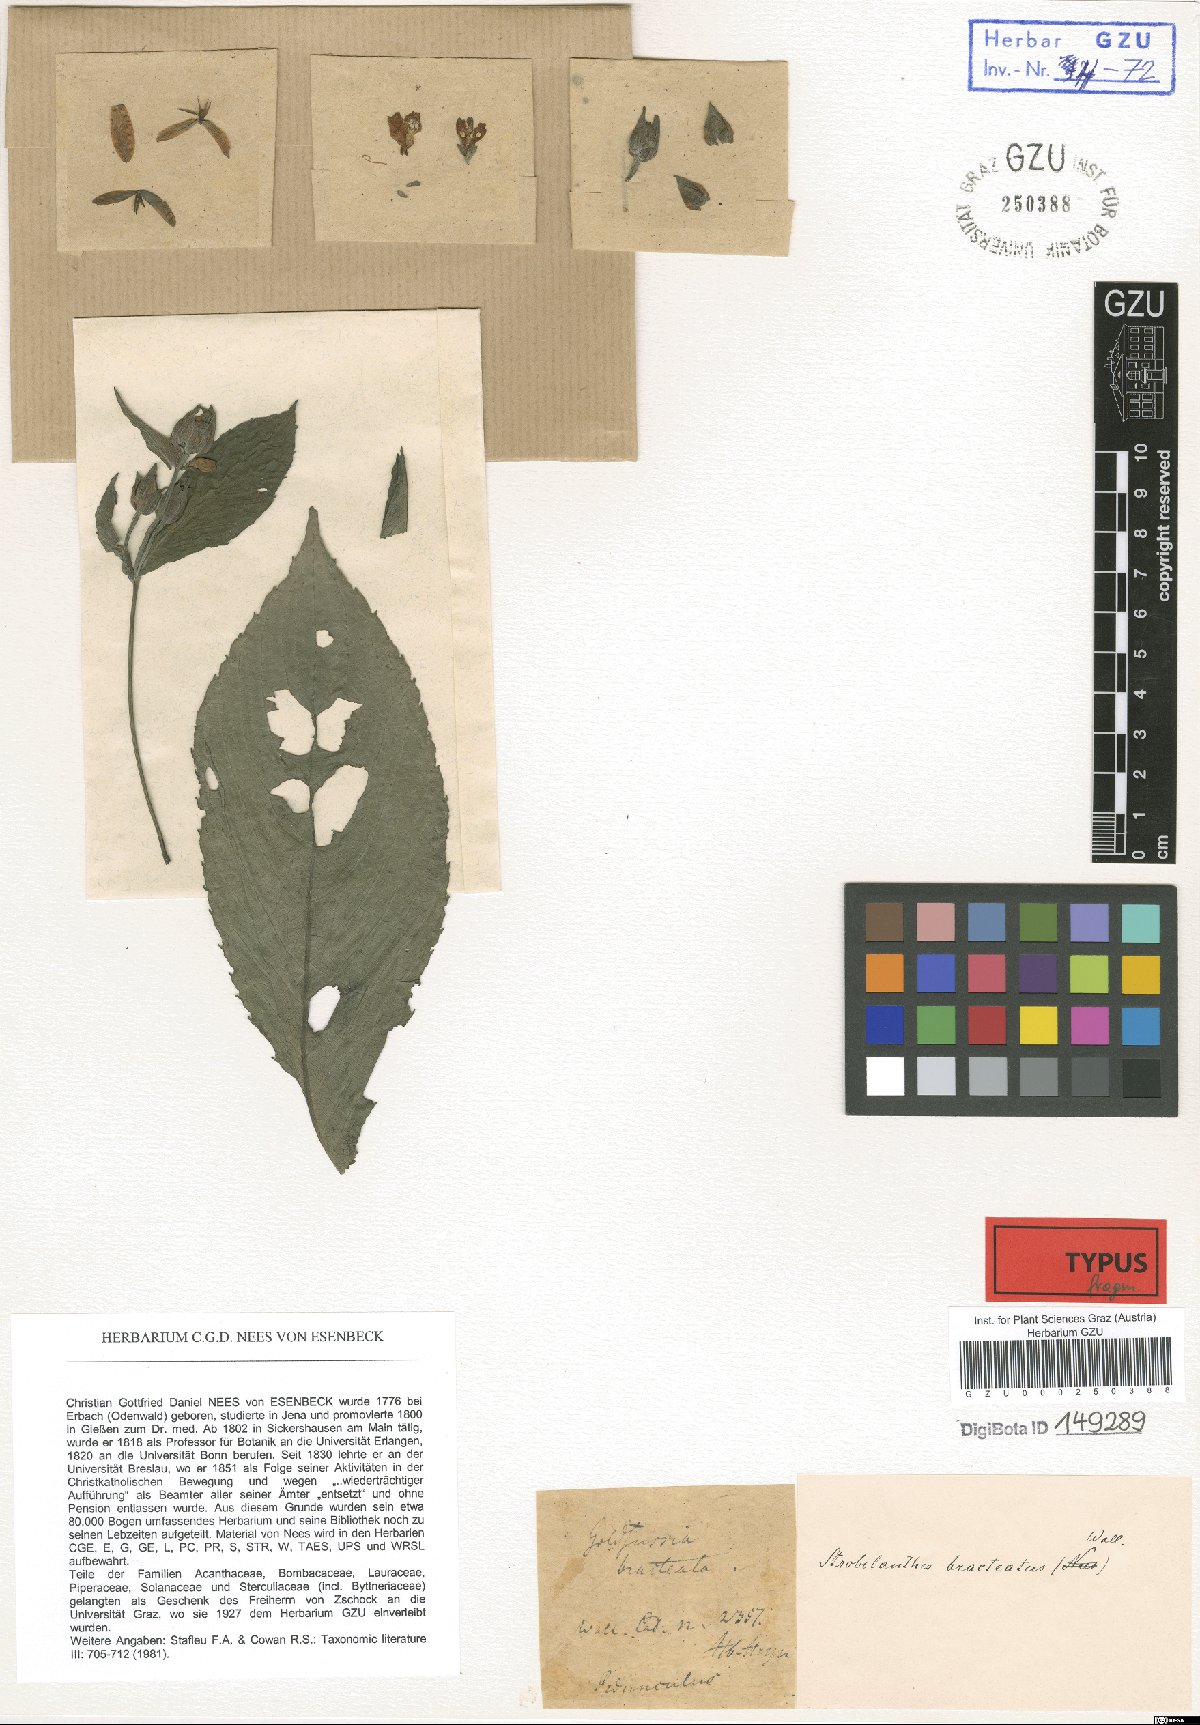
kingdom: Plantae
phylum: Tracheophyta
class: Magnoliopsida
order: Lamiales
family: Acanthaceae
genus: Strobilanthes
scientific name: Strobilanthes bracteata
